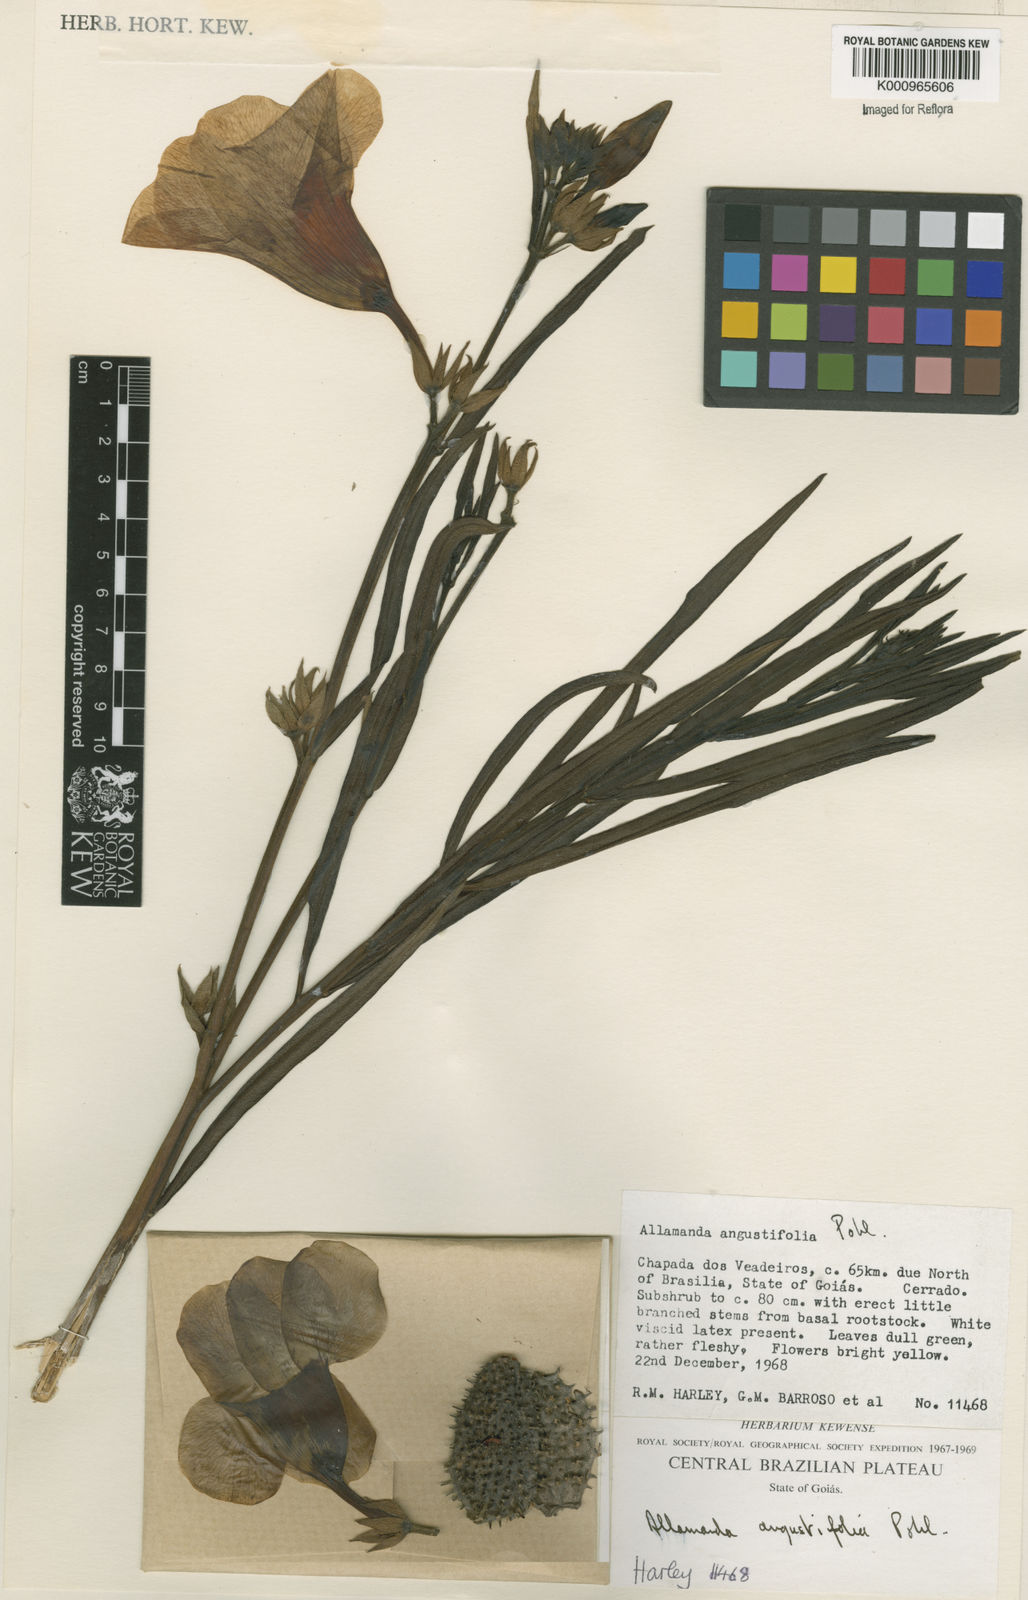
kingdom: Plantae
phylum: Tracheophyta
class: Magnoliopsida
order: Gentianales
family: Apocynaceae
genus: Allamanda
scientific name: Allamanda angustifolia
